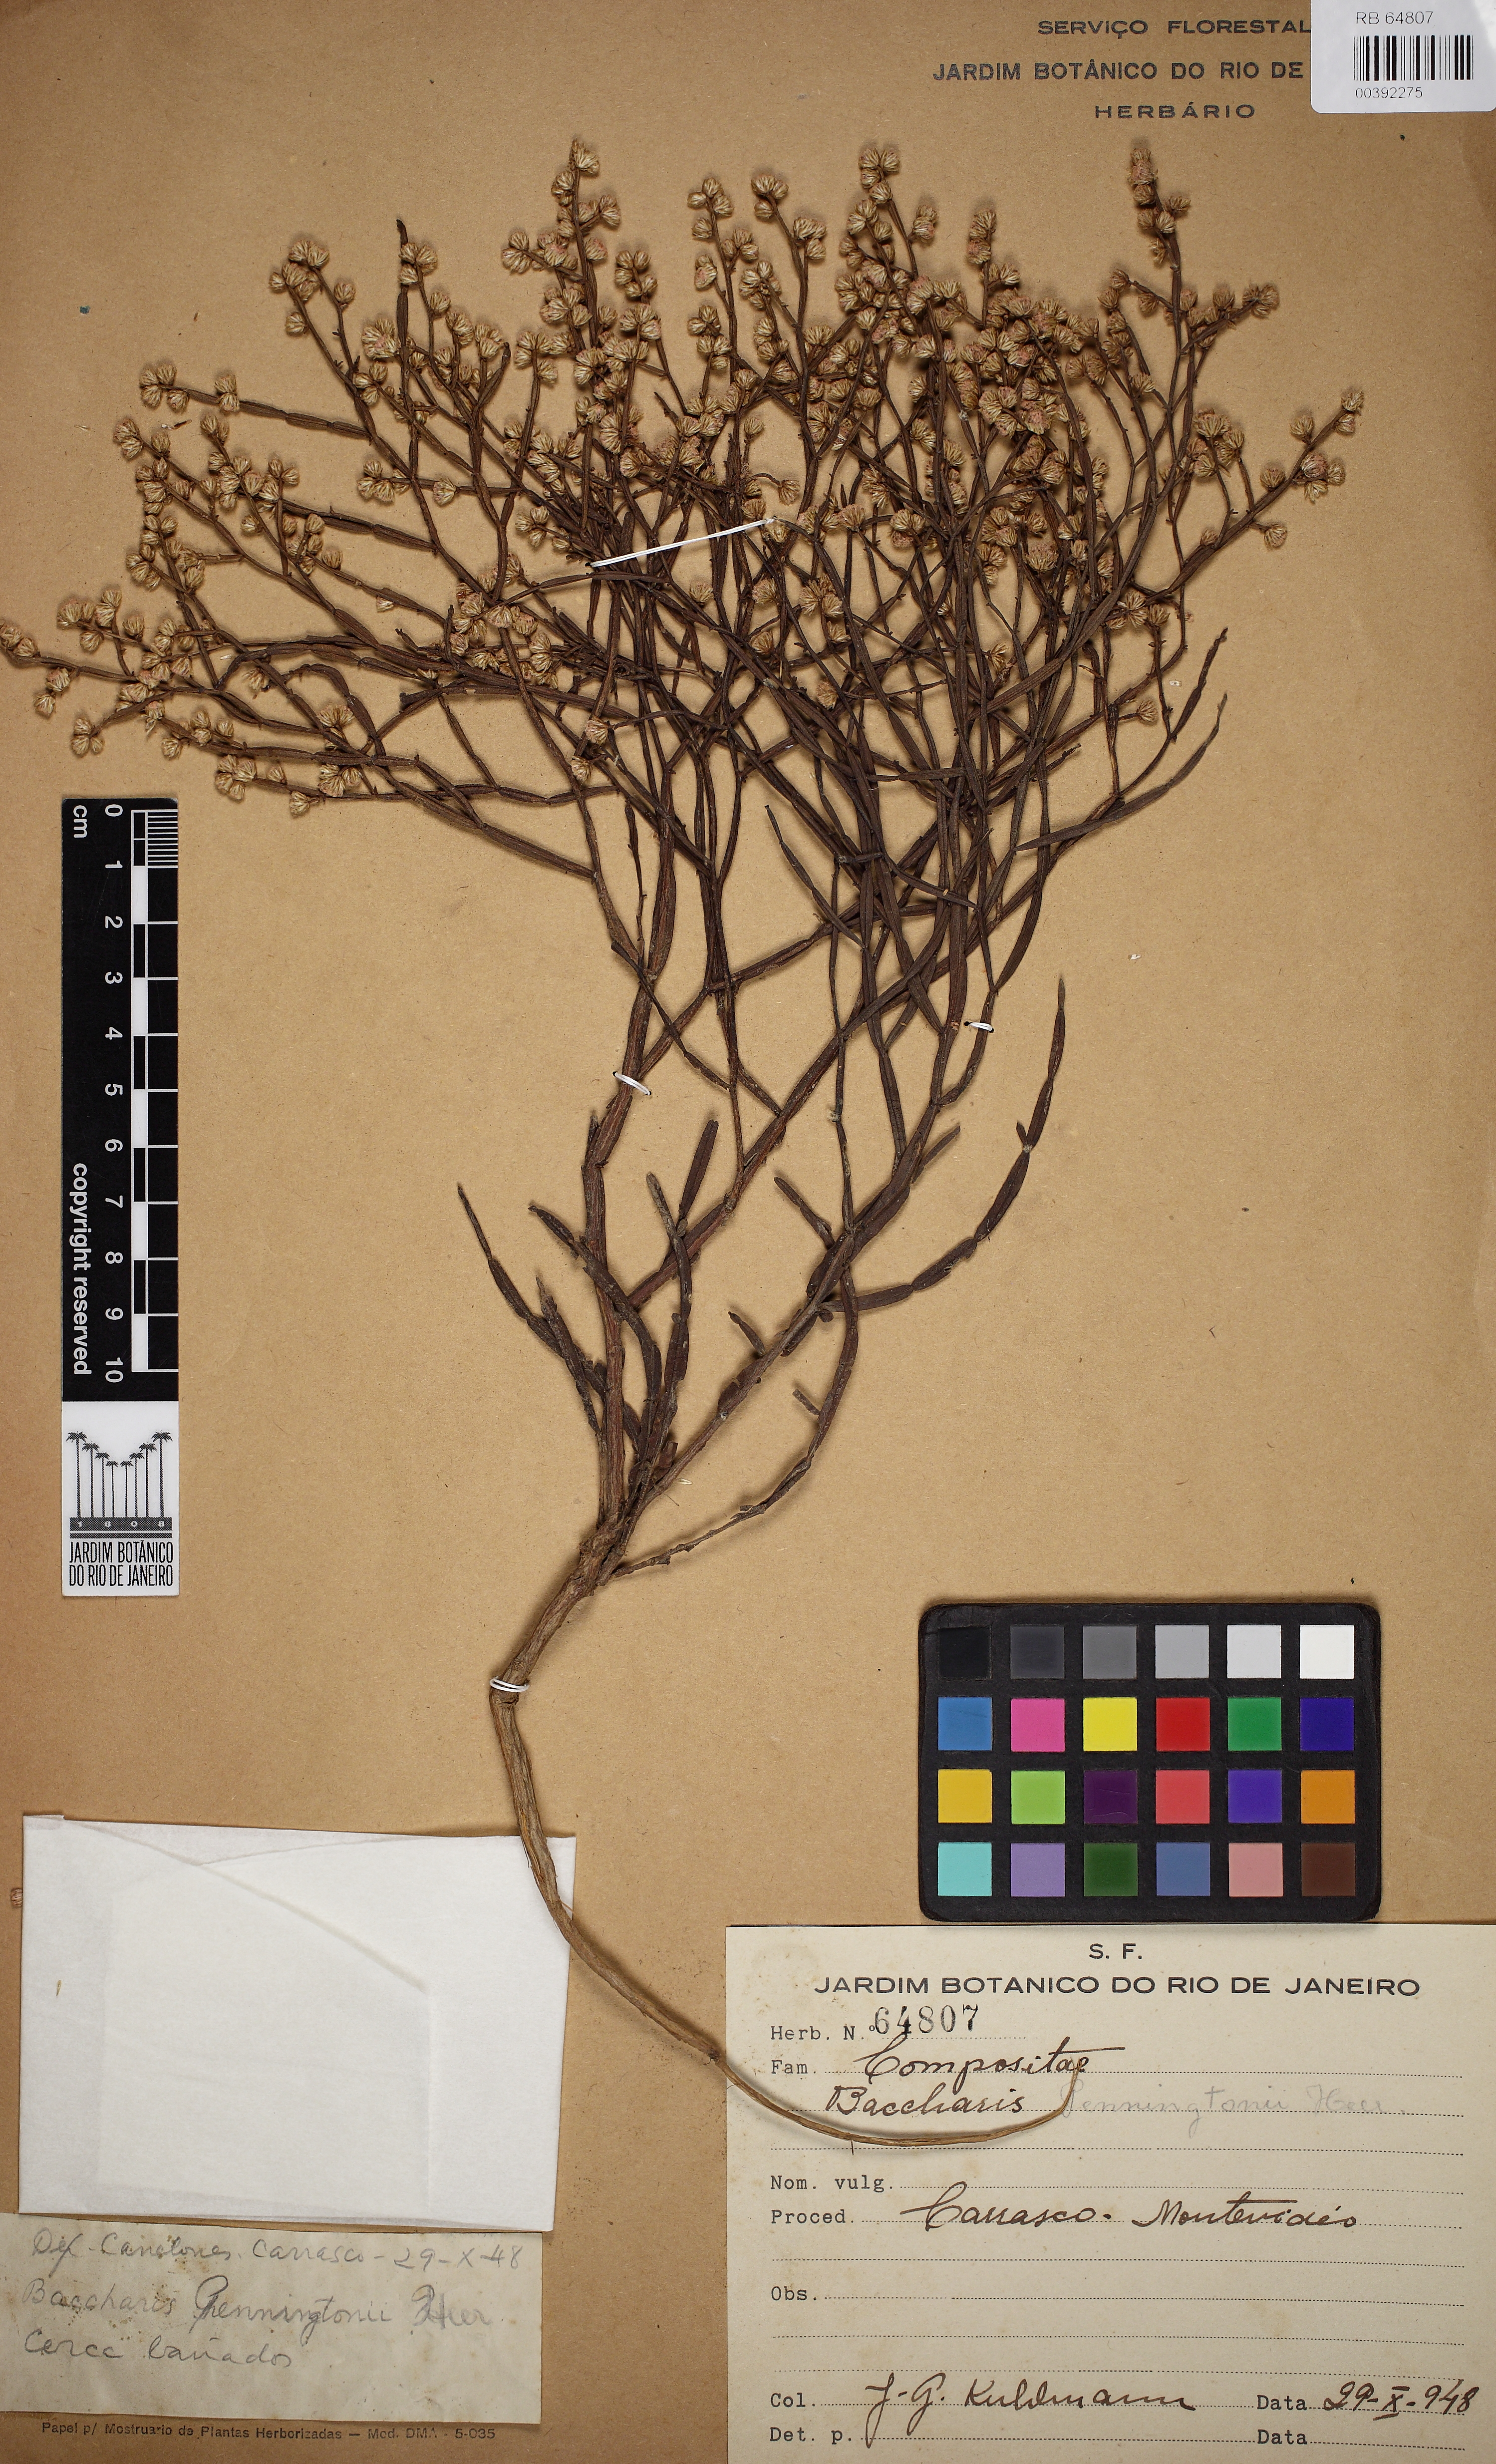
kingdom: Plantae
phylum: Tracheophyta
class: Magnoliopsida
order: Asterales
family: Asteraceae
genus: Baccharis
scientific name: Baccharis articulata
